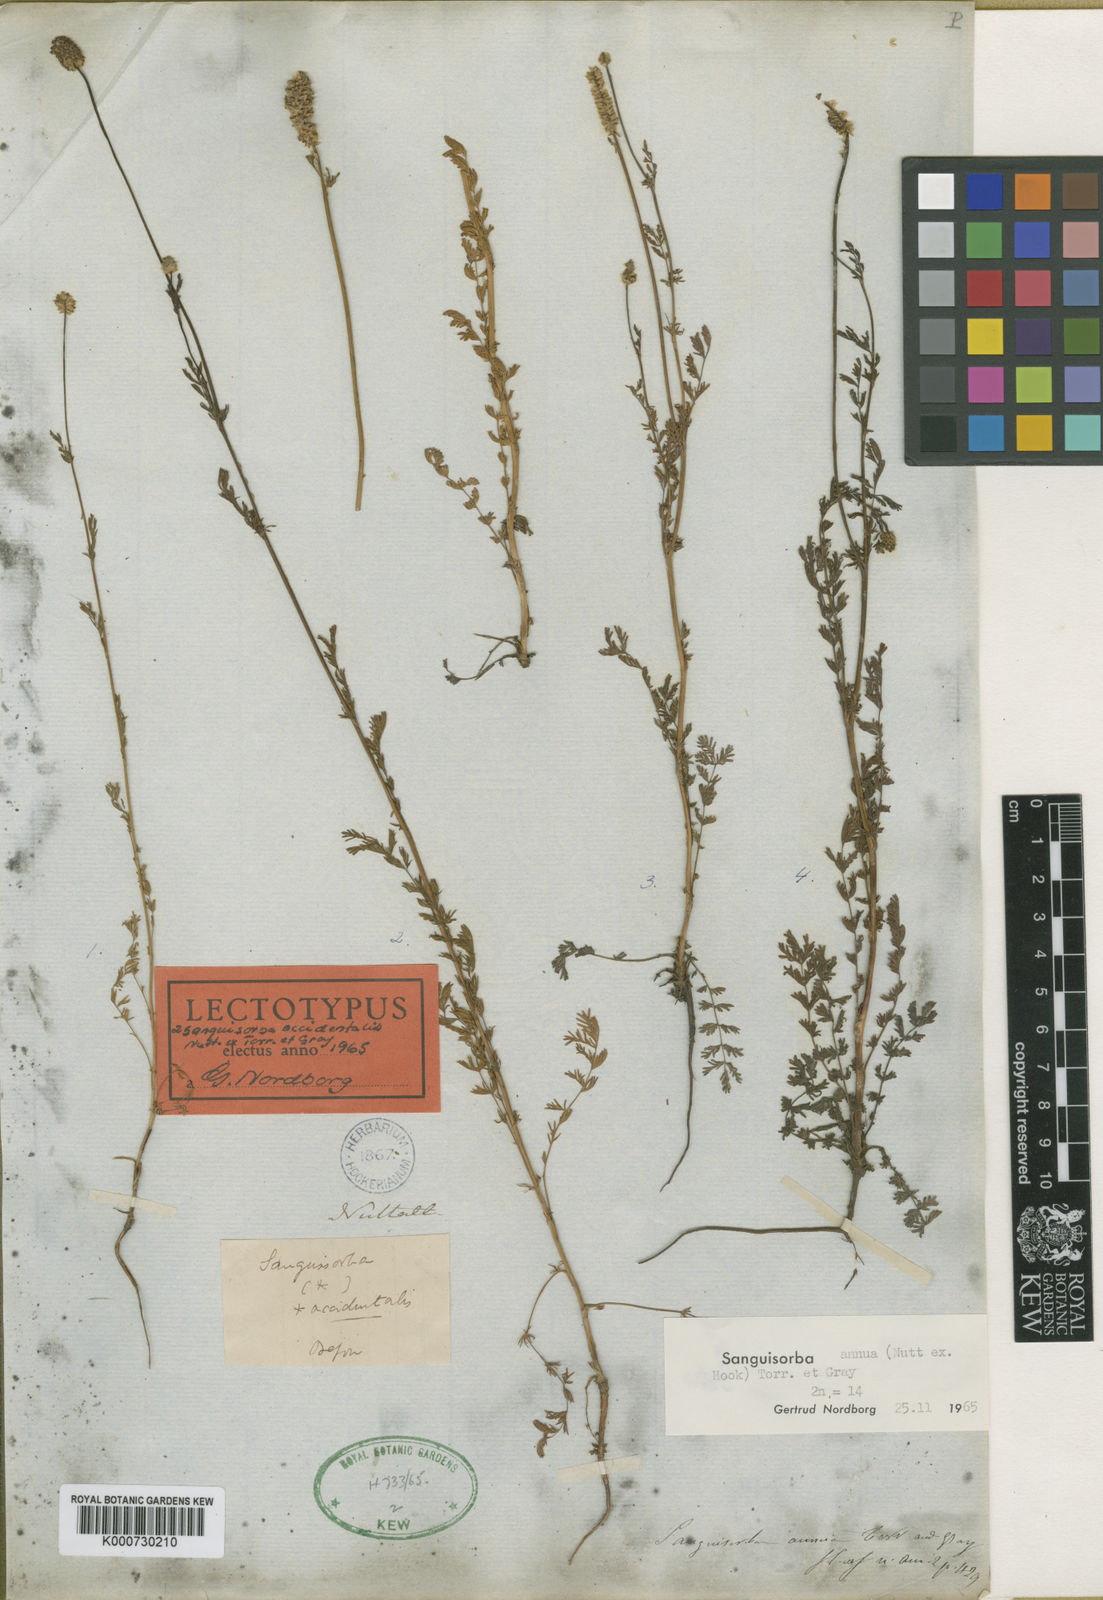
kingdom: Plantae
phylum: Tracheophyta
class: Magnoliopsida
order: Rosales
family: Rosaceae
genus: Sanguisorba
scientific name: Sanguisorba
